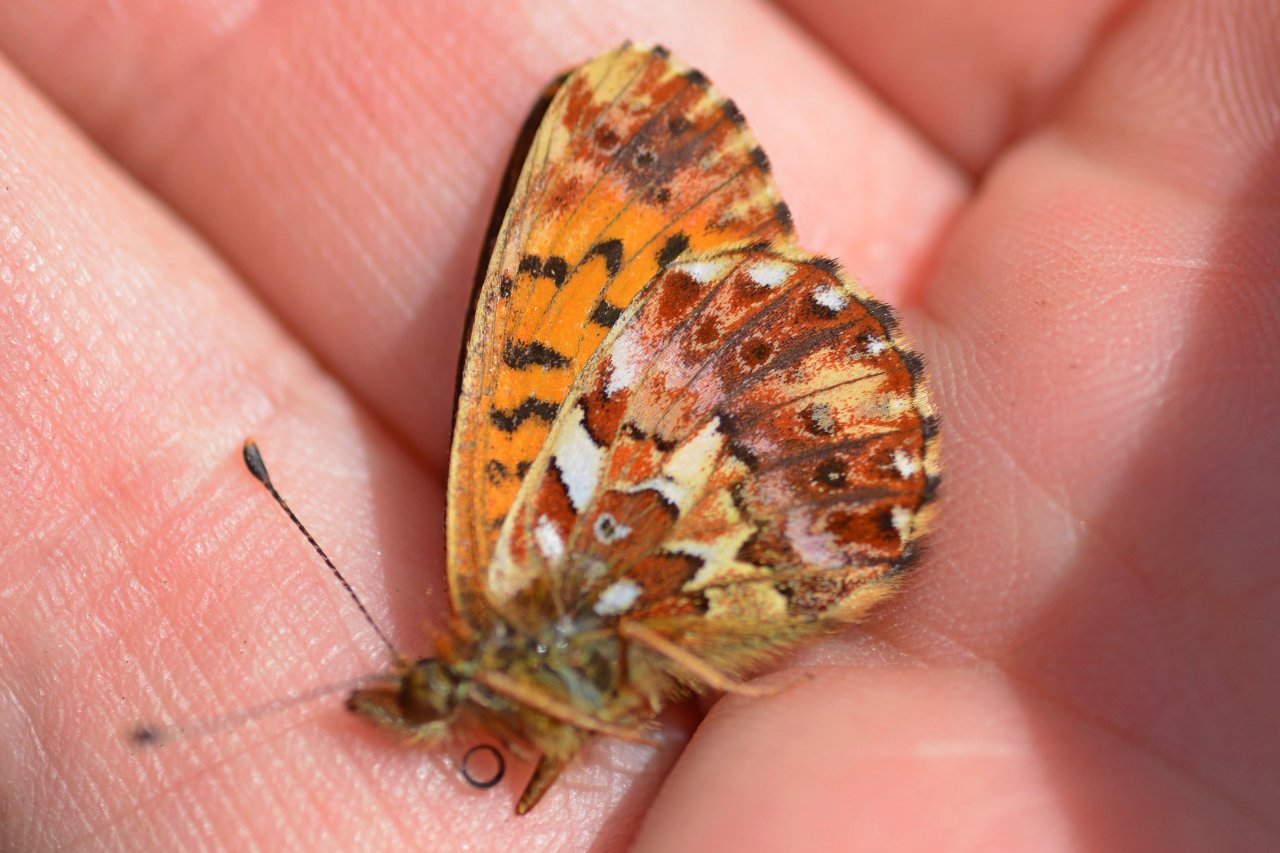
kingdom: Animalia
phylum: Arthropoda
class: Insecta
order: Lepidoptera
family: Nymphalidae
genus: Boloria
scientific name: Boloria chariclea
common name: Arctic Fritillary
